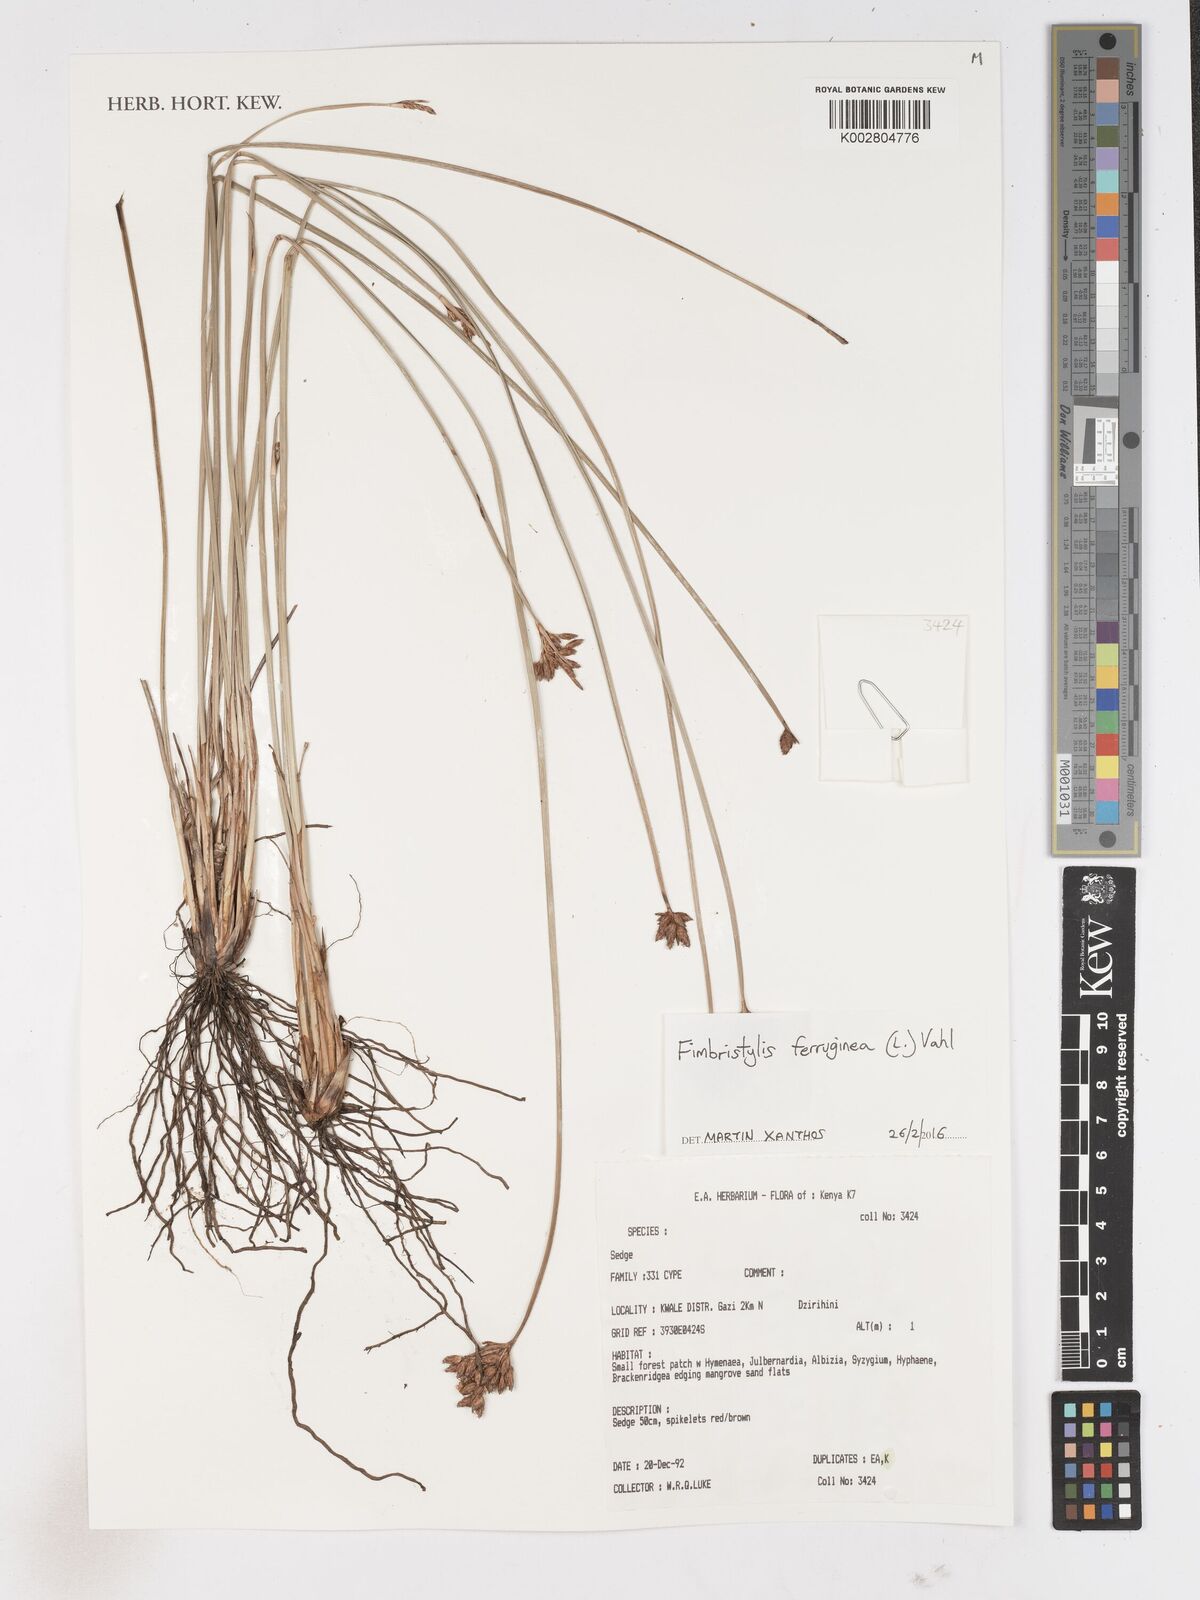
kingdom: Plantae
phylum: Tracheophyta
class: Liliopsida
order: Poales
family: Cyperaceae
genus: Fimbristylis
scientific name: Fimbristylis ferruginea
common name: West indian fimbry
